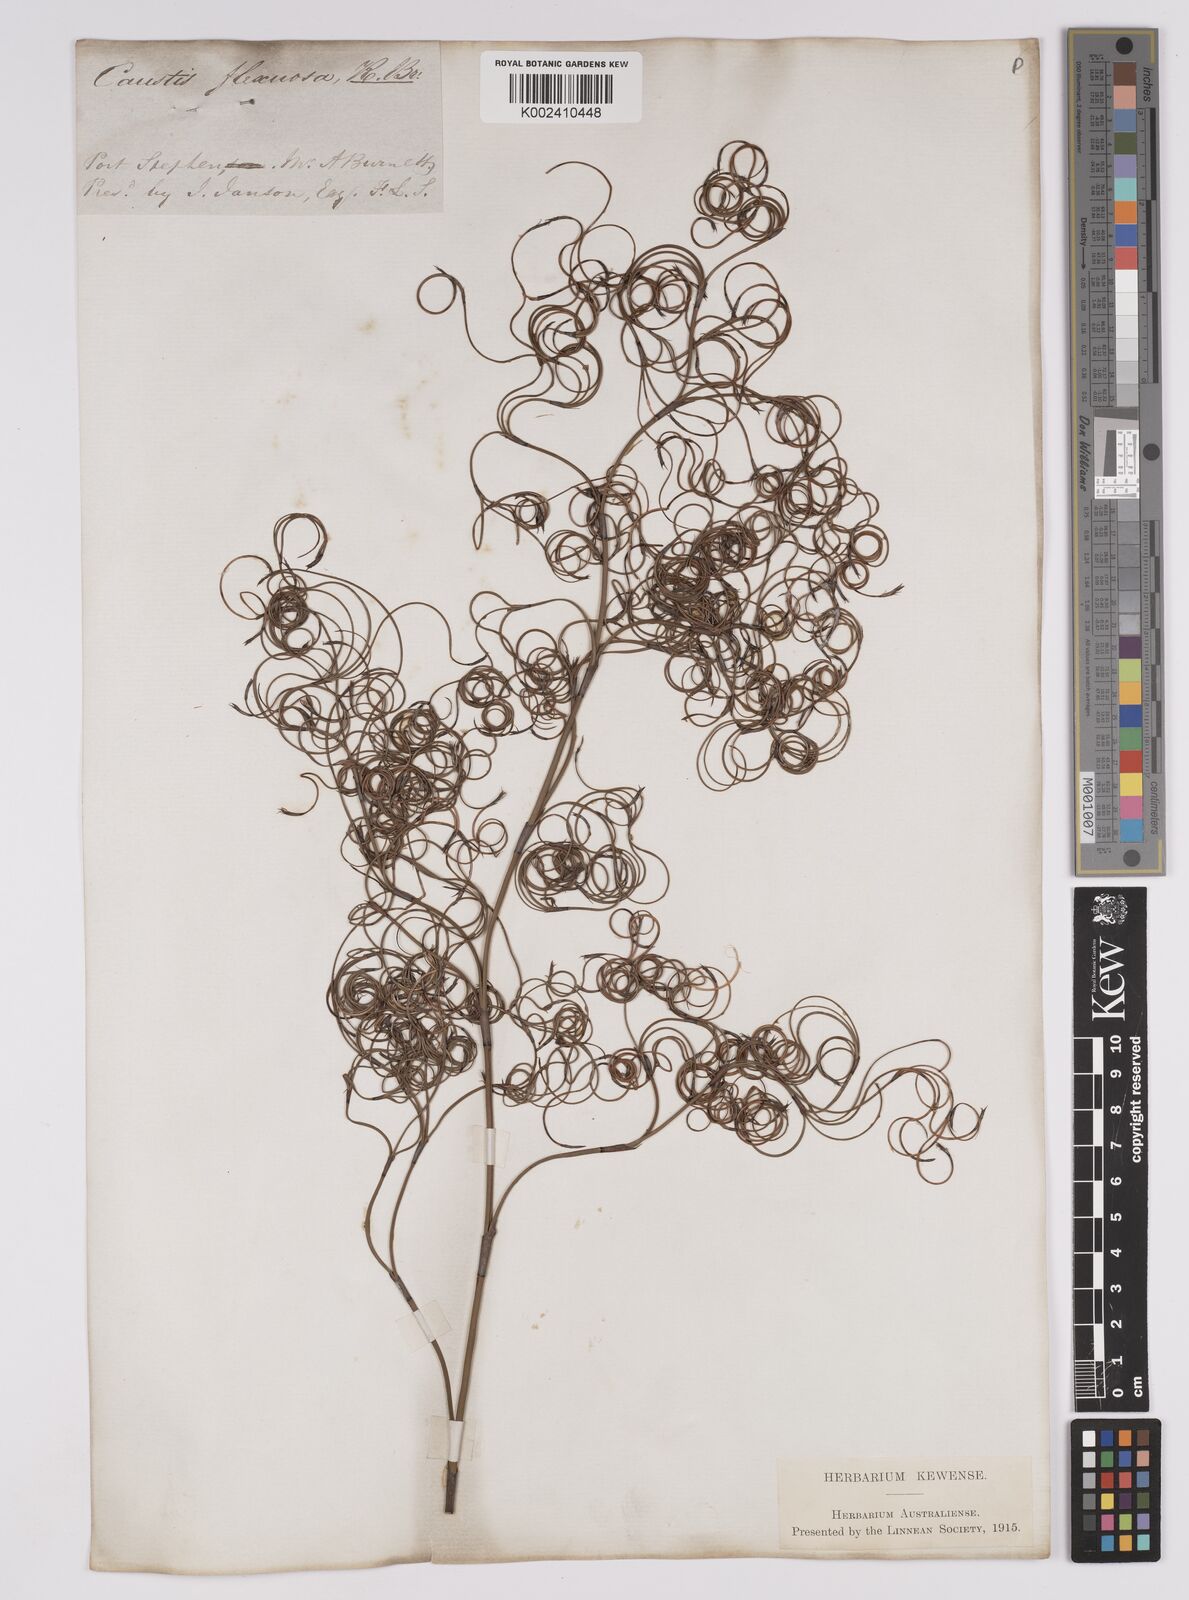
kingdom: Plantae
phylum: Tracheophyta
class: Liliopsida
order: Poales
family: Cyperaceae
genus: Caustis
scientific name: Caustis flexuosa
